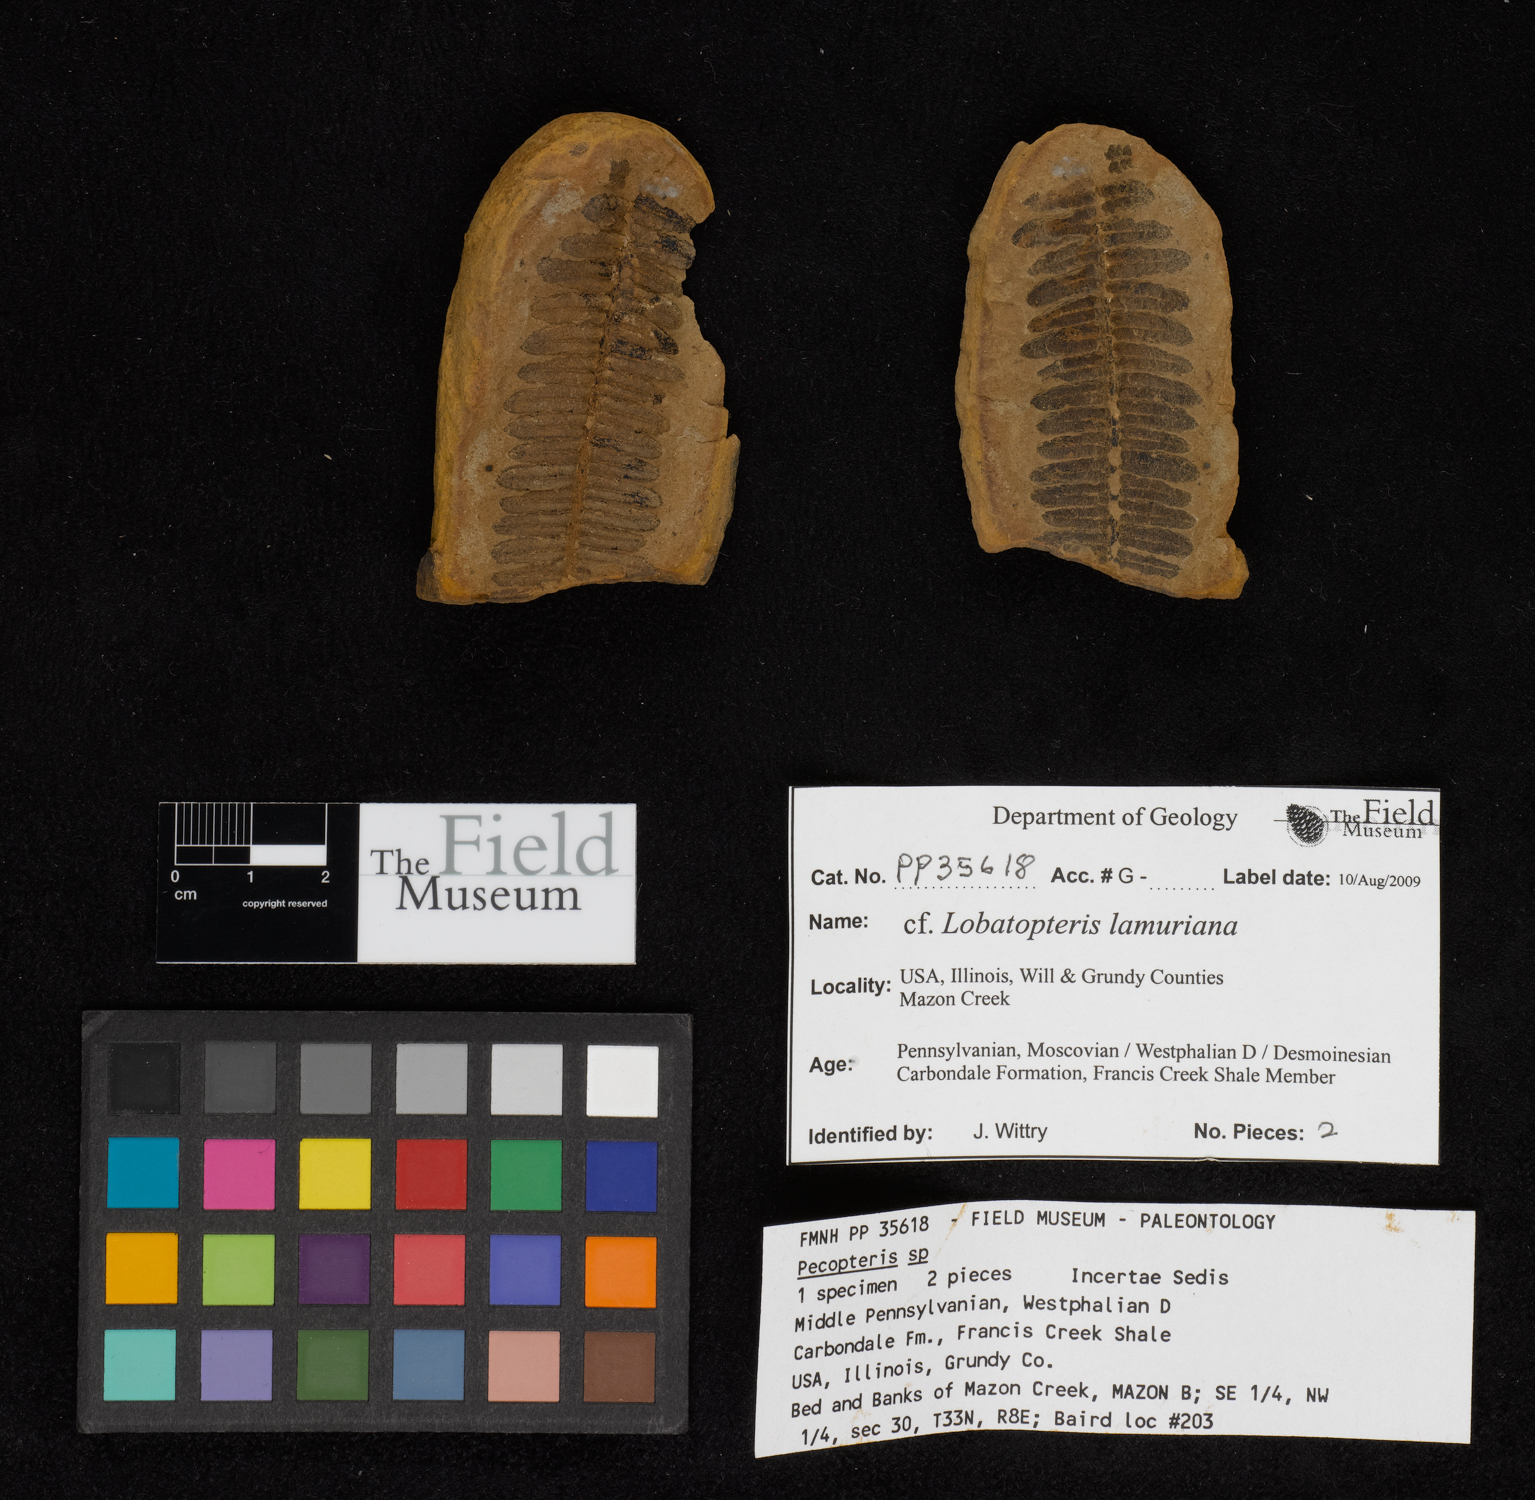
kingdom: Plantae
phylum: Tracheophyta
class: Polypodiopsida
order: Marattiales
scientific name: Marattiales
